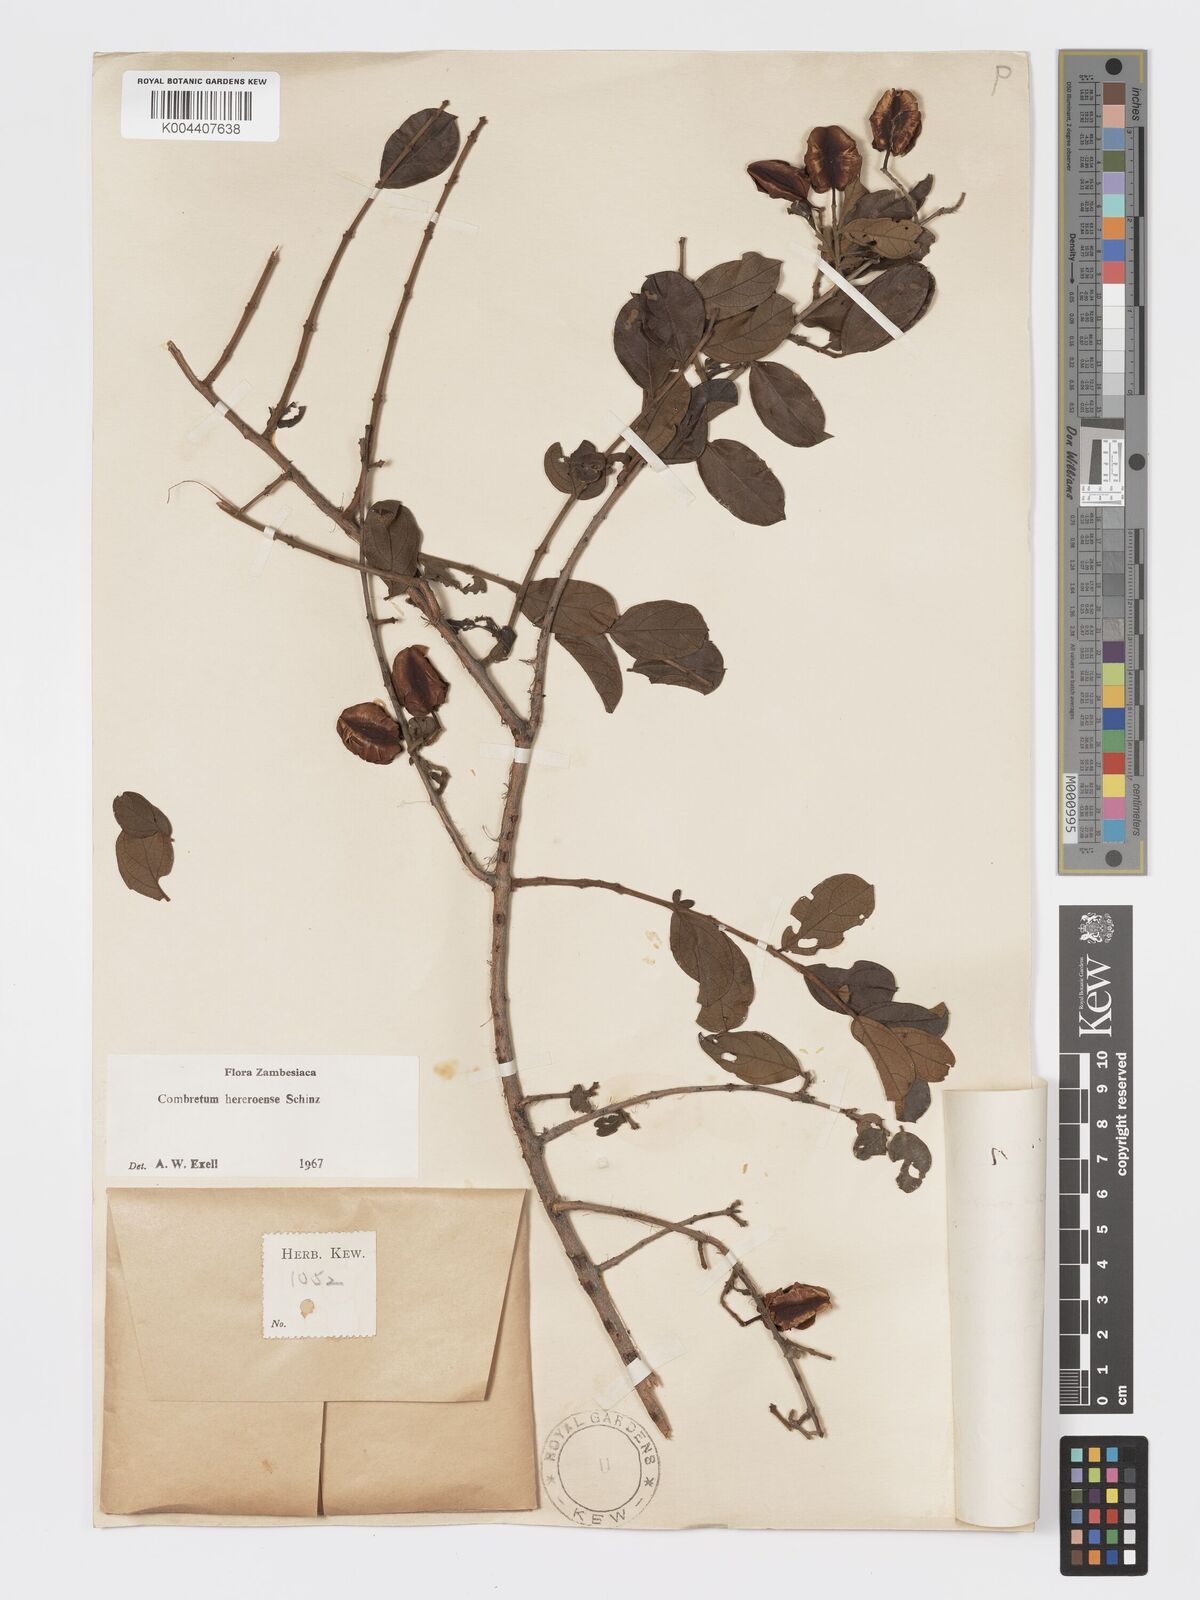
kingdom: Plantae
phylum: Tracheophyta
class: Magnoliopsida
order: Myrtales
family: Combretaceae
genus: Combretum
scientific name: Combretum hereroense
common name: Russet bushwillow
